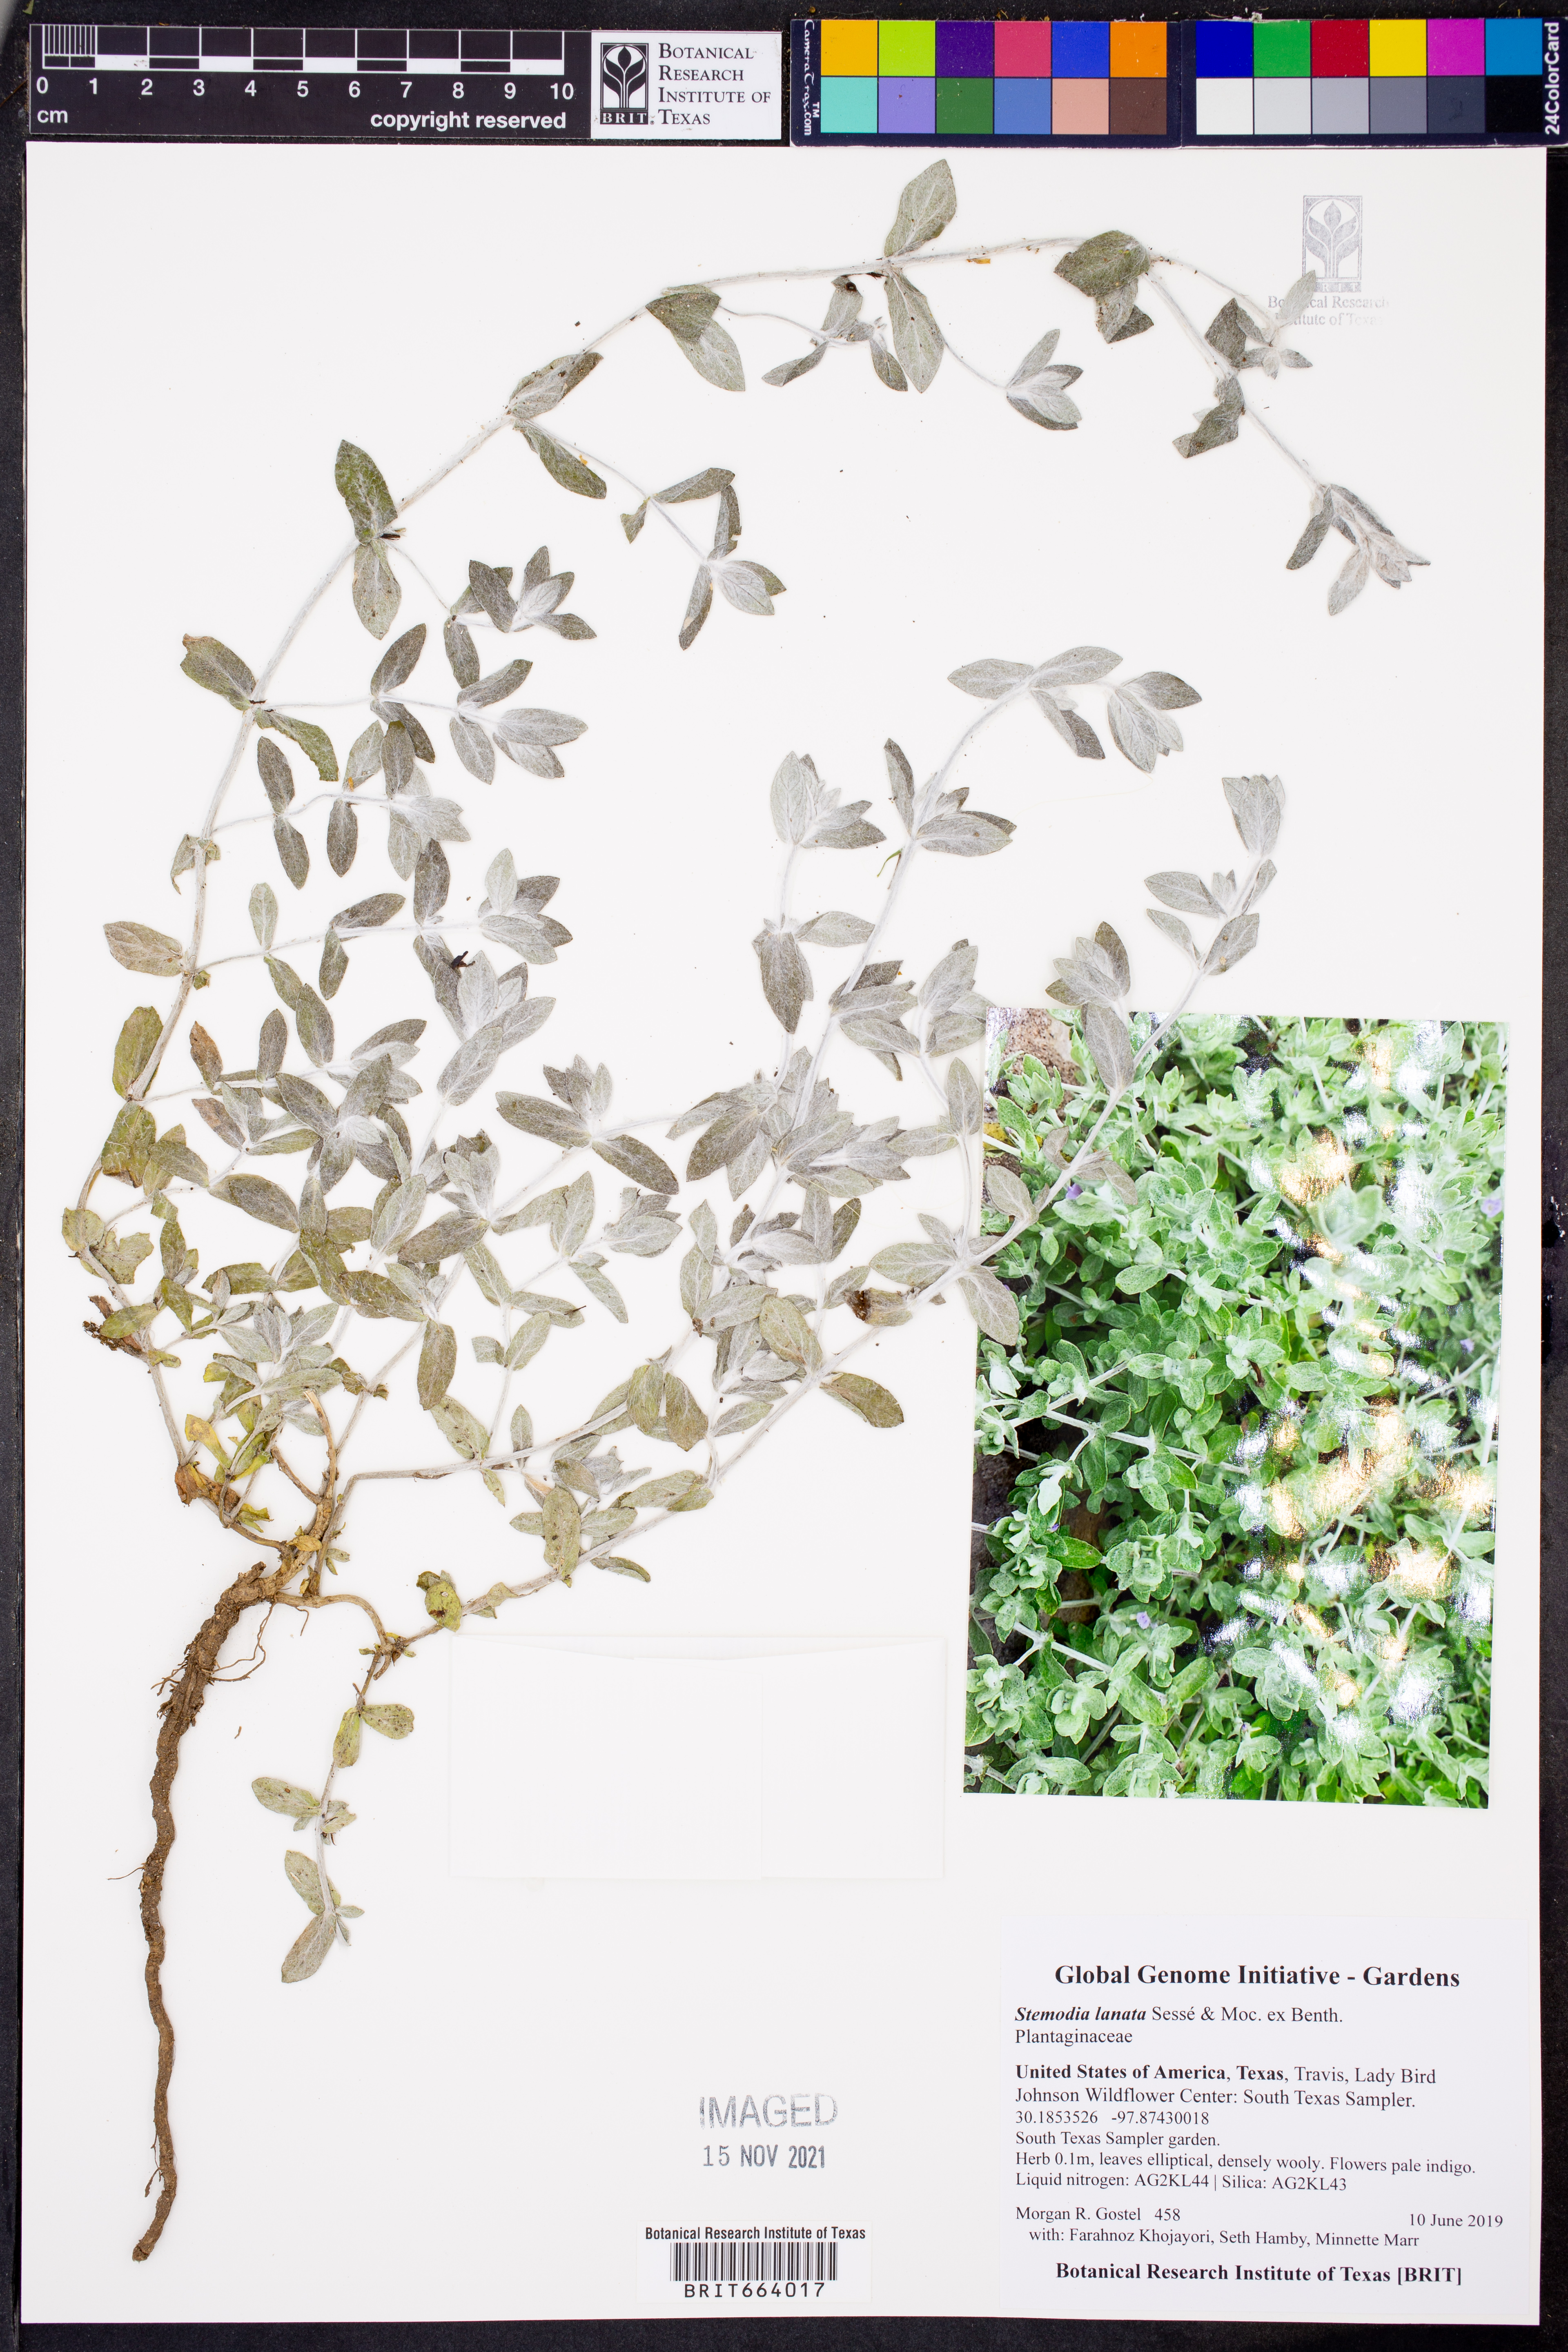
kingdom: Plantae
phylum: Tracheophyta
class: Magnoliopsida
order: Lamiales
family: Plantaginaceae
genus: Stemodia
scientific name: Stemodia lanata
